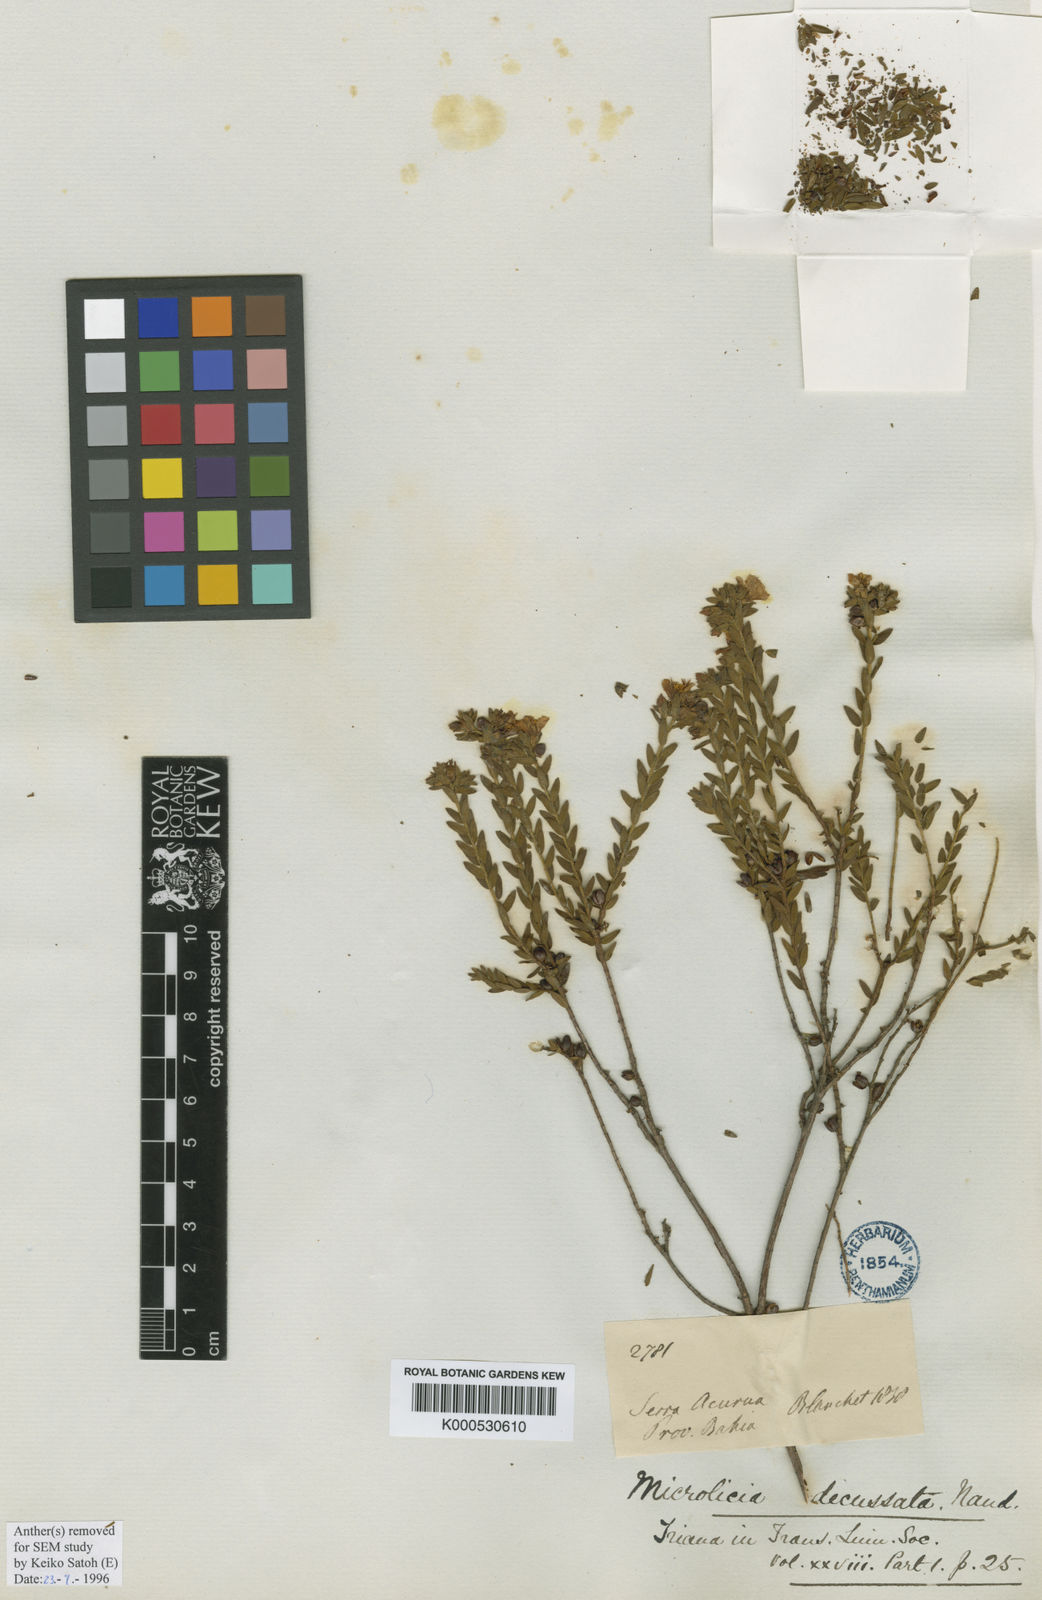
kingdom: Plantae
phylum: Tracheophyta
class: Magnoliopsida
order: Myrtales
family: Melastomataceae
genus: Microlicia
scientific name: Microlicia fasciculata
